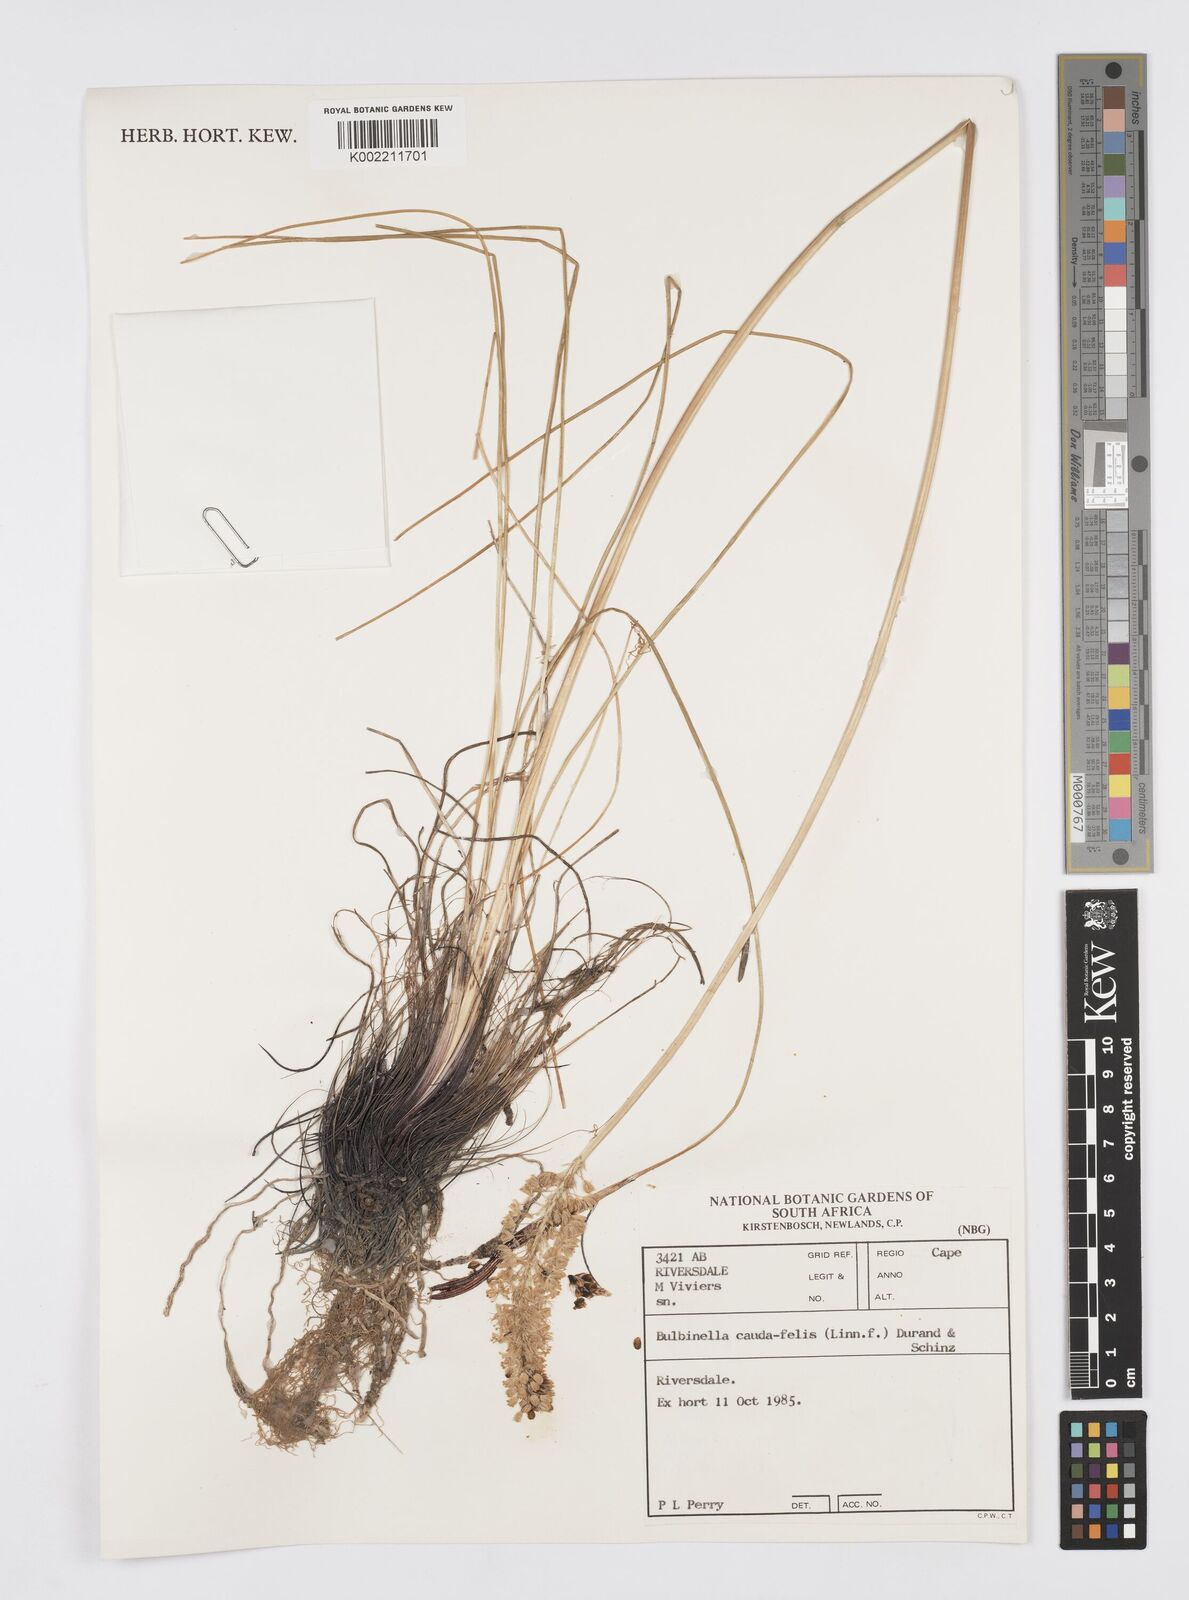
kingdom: Plantae
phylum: Tracheophyta
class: Liliopsida
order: Asparagales
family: Asphodelaceae
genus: Bulbinella
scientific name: Bulbinella cauda-felis
